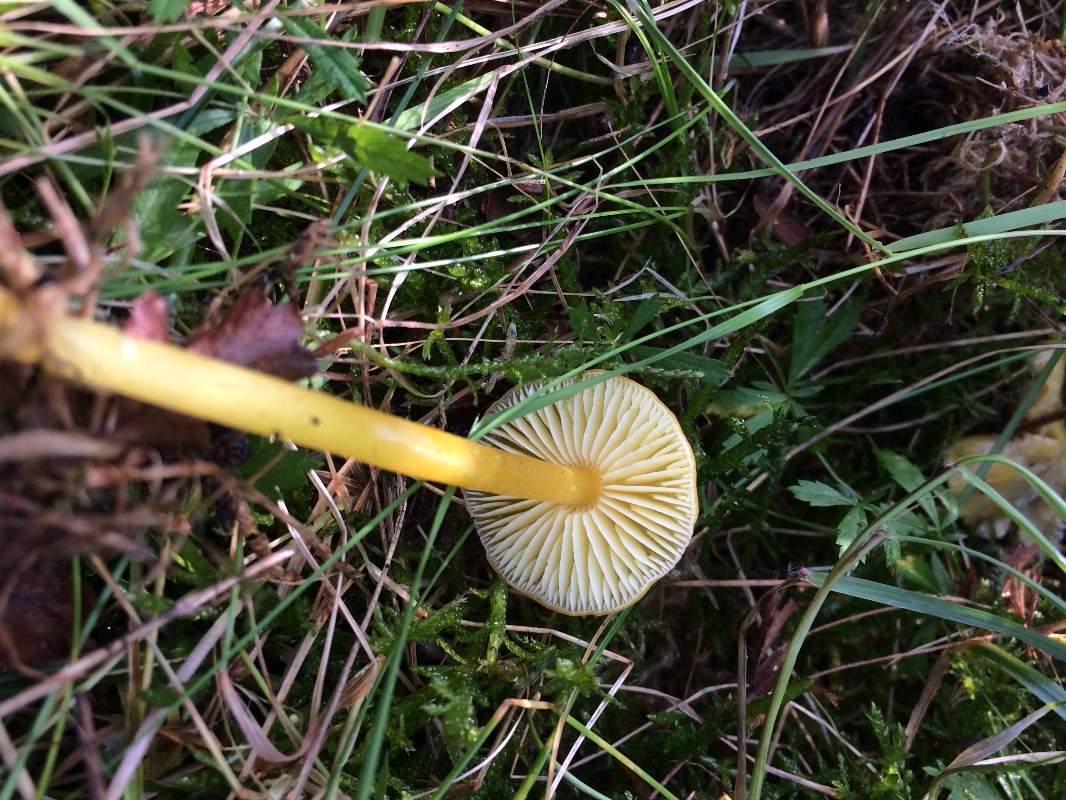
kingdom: Fungi
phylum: Basidiomycota
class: Agaricomycetes
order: Agaricales
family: Hygrophoraceae
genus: Hygrocybe
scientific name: Hygrocybe glutinipes
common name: slimstokket vokshat
